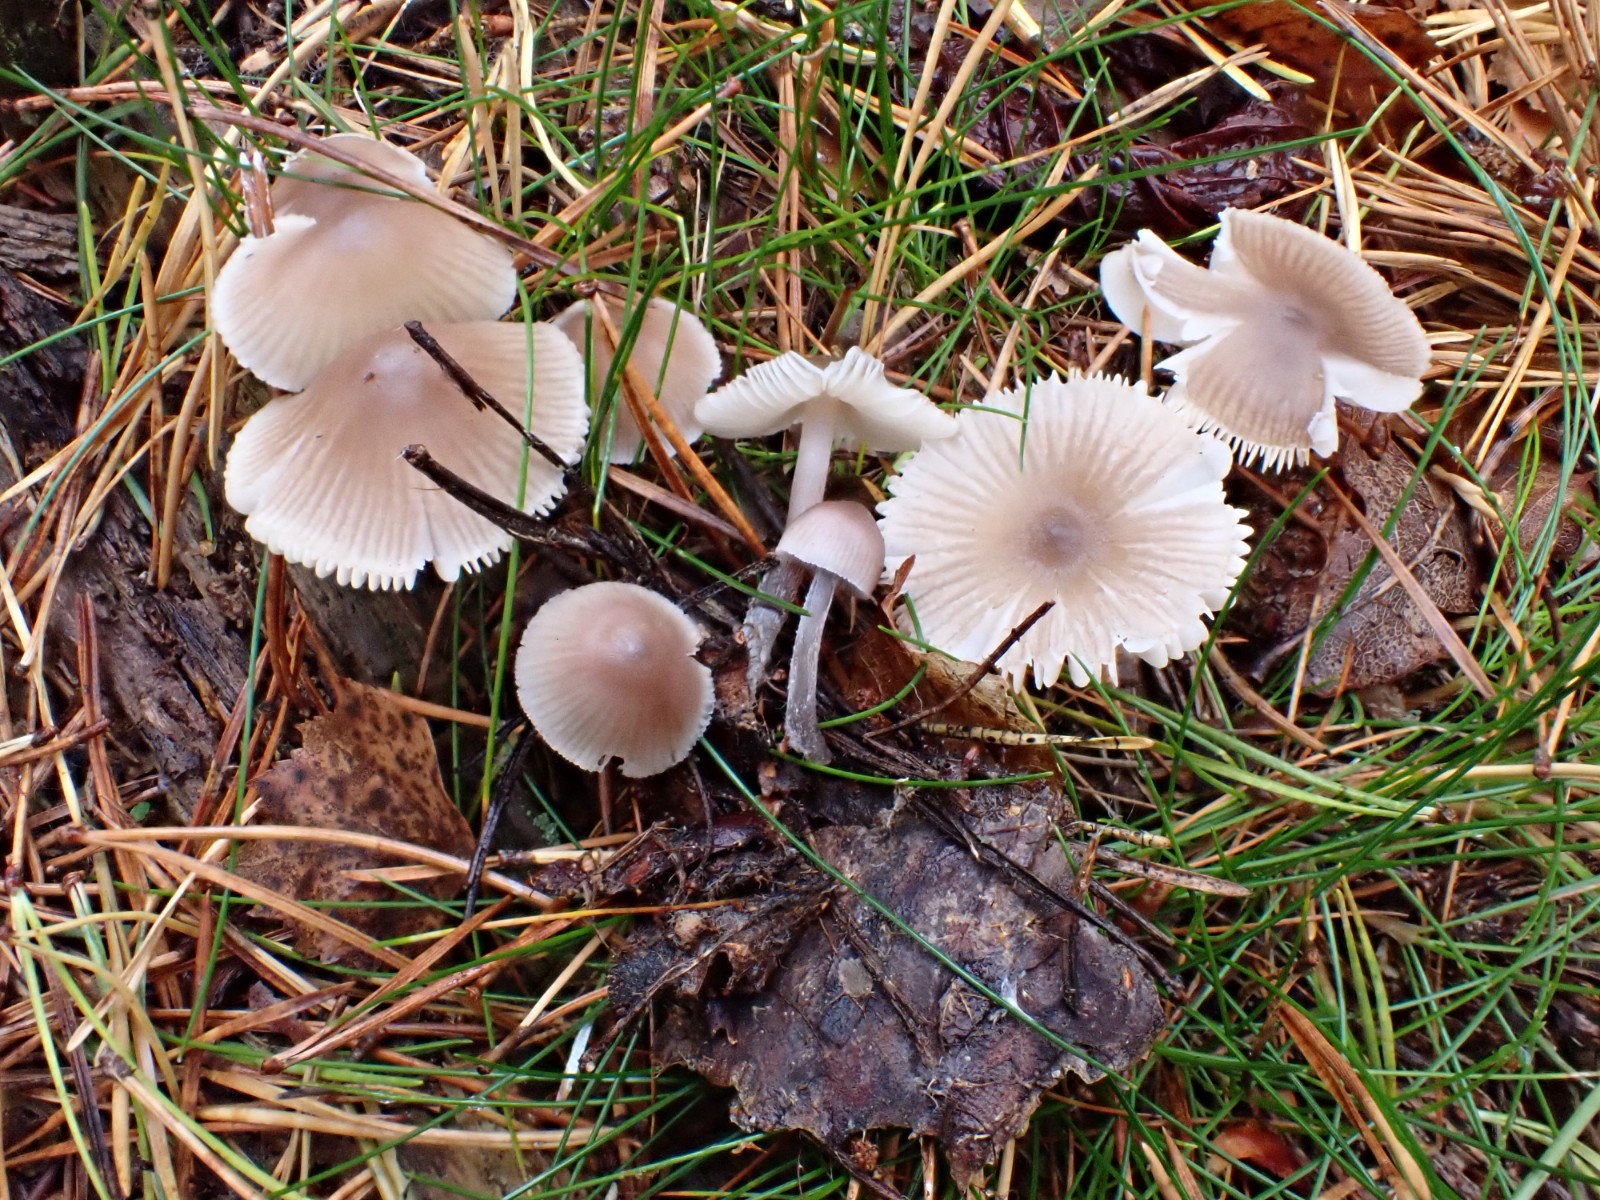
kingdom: Fungi
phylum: Basidiomycota
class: Agaricomycetes
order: Agaricales
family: Mycenaceae
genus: Mycena
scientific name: Mycena zephirus
